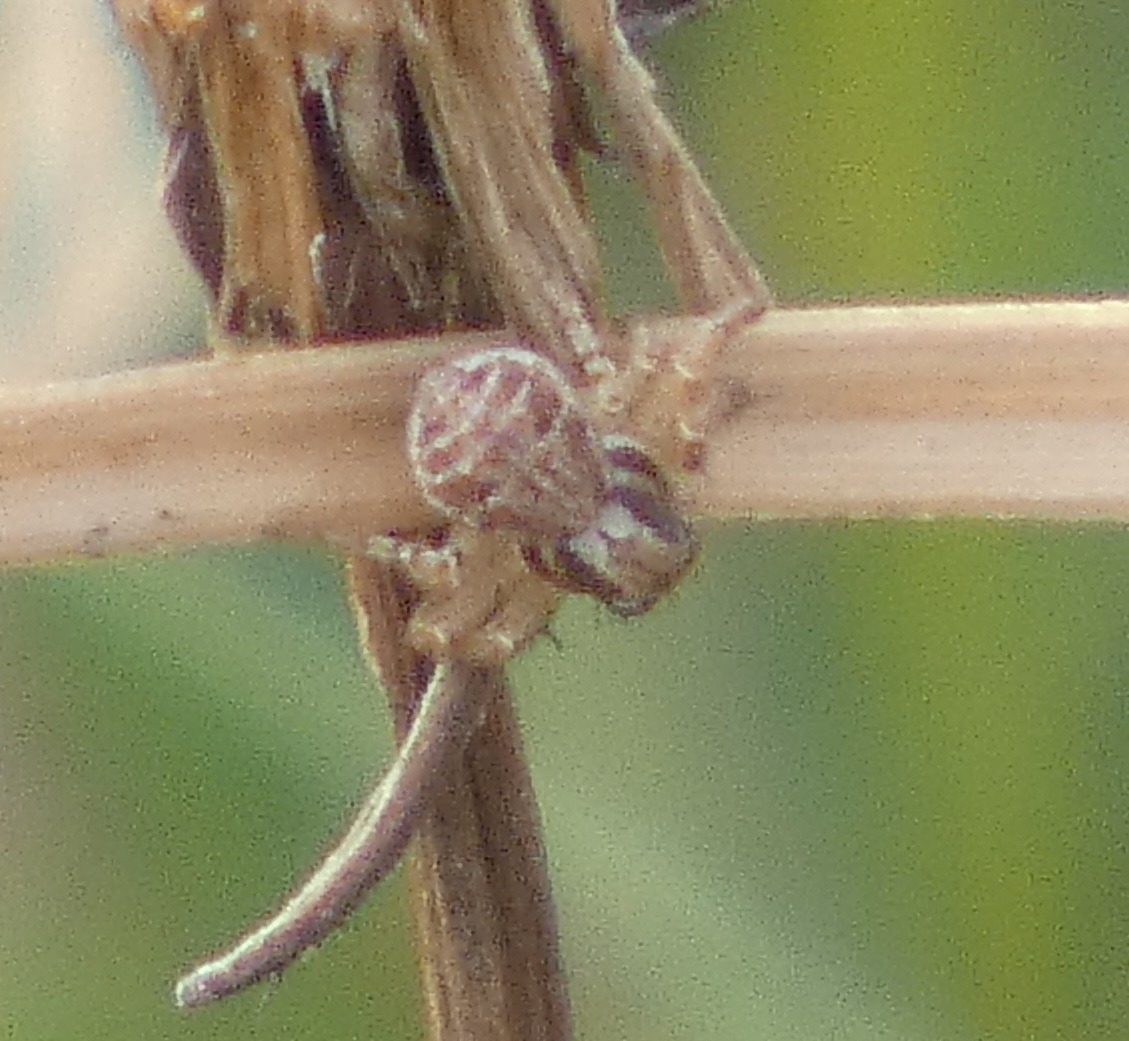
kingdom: Animalia
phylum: Arthropoda
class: Arachnida
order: Araneae
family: Thomisidae
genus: Xysticus
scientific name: Xysticus
